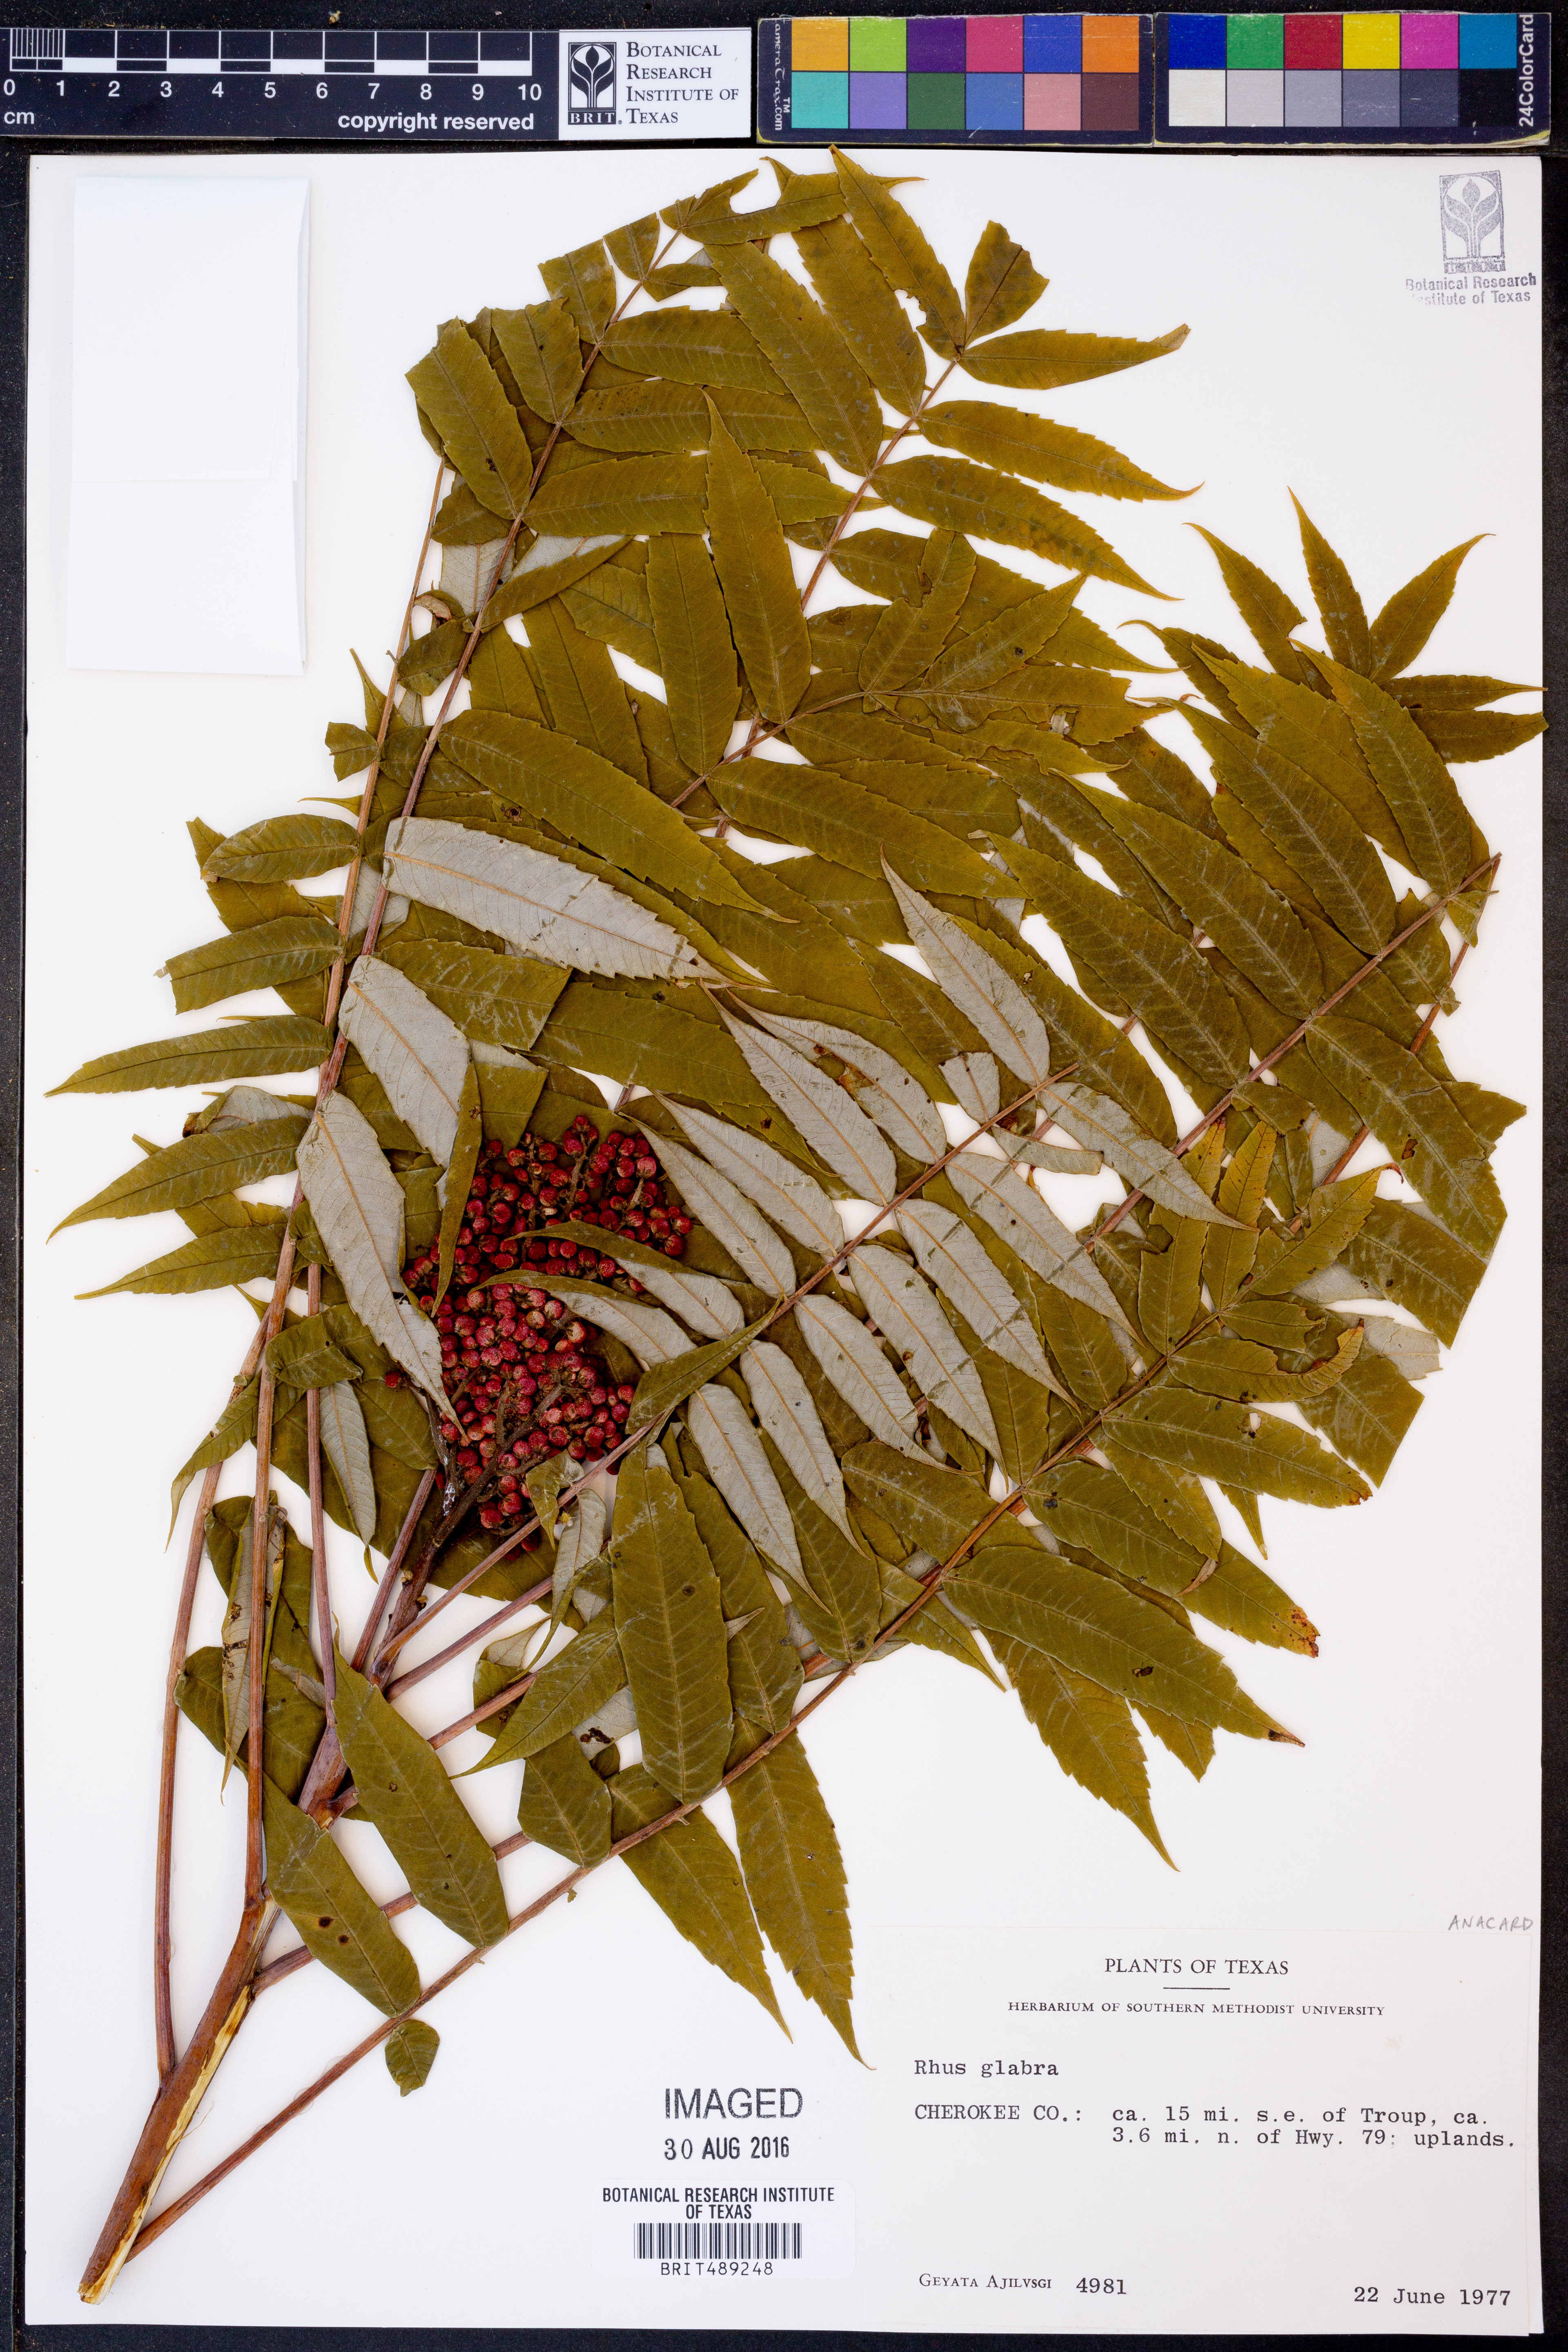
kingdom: Plantae
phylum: Tracheophyta
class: Magnoliopsida
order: Sapindales
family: Anacardiaceae
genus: Rhus
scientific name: Rhus glabra
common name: Scarlet sumac
